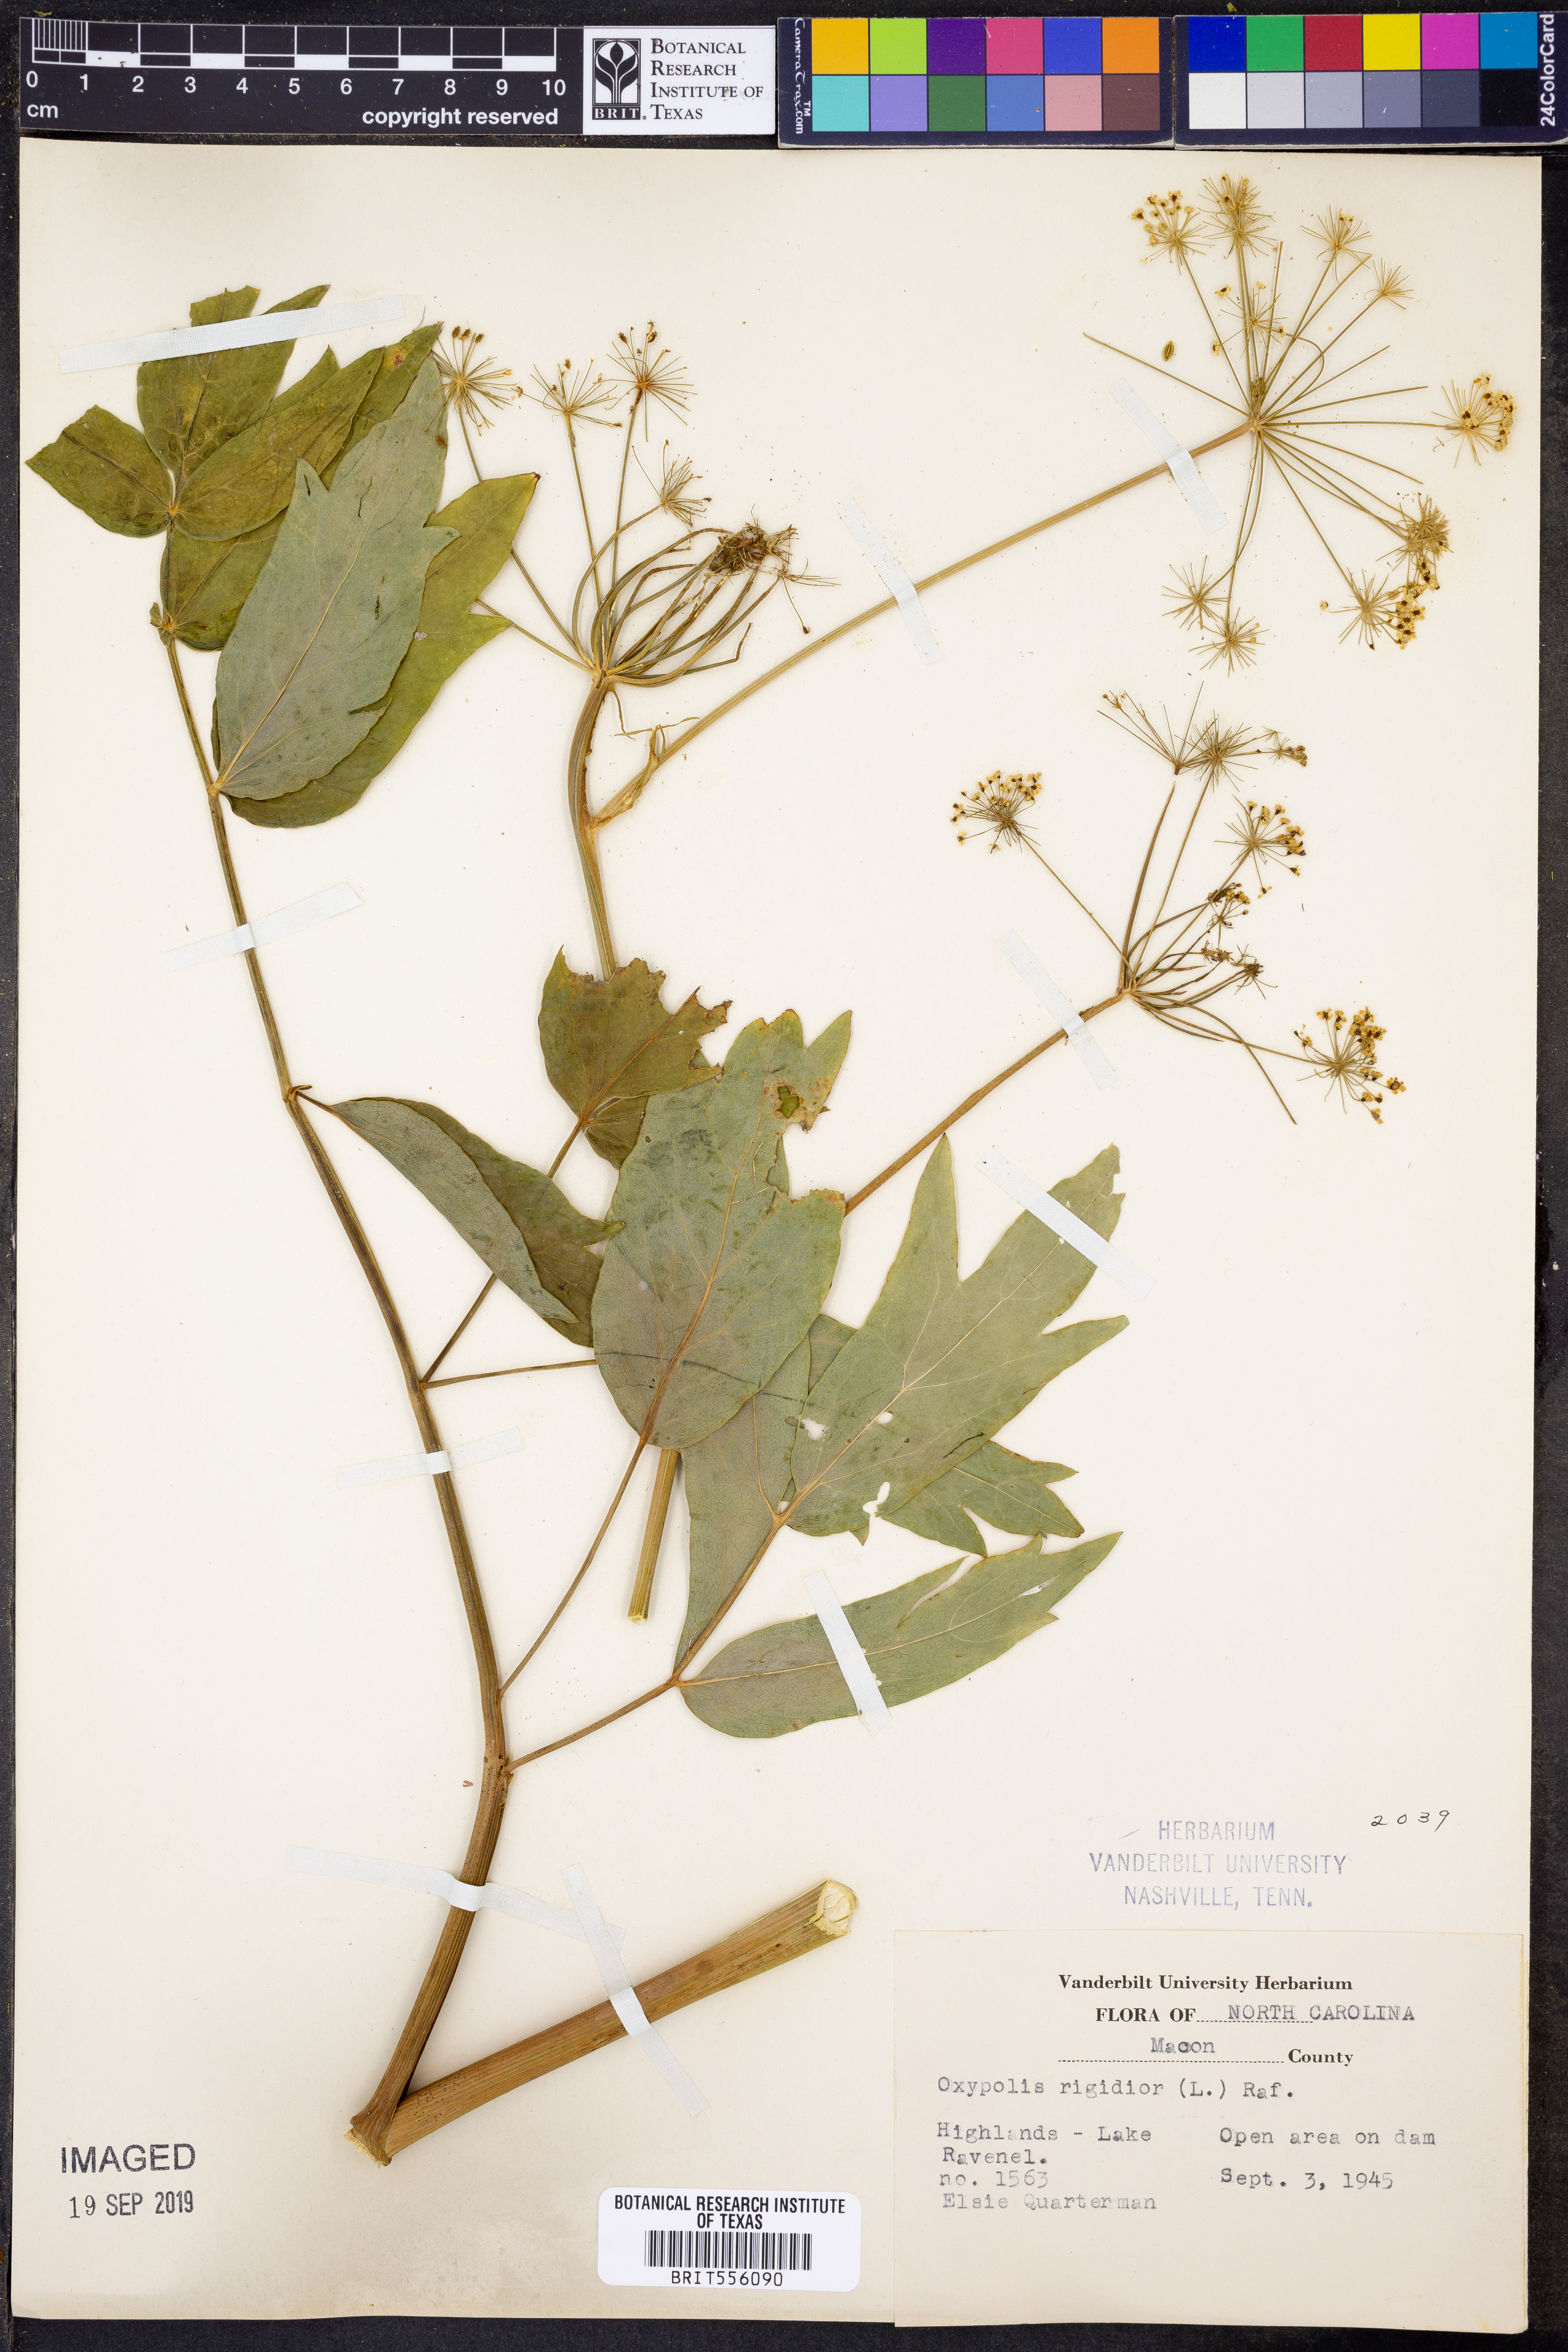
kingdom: Plantae
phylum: Tracheophyta
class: Magnoliopsida
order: Apiales
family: Apiaceae
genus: Oxypolis
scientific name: Oxypolis rigidior
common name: Cowbane
